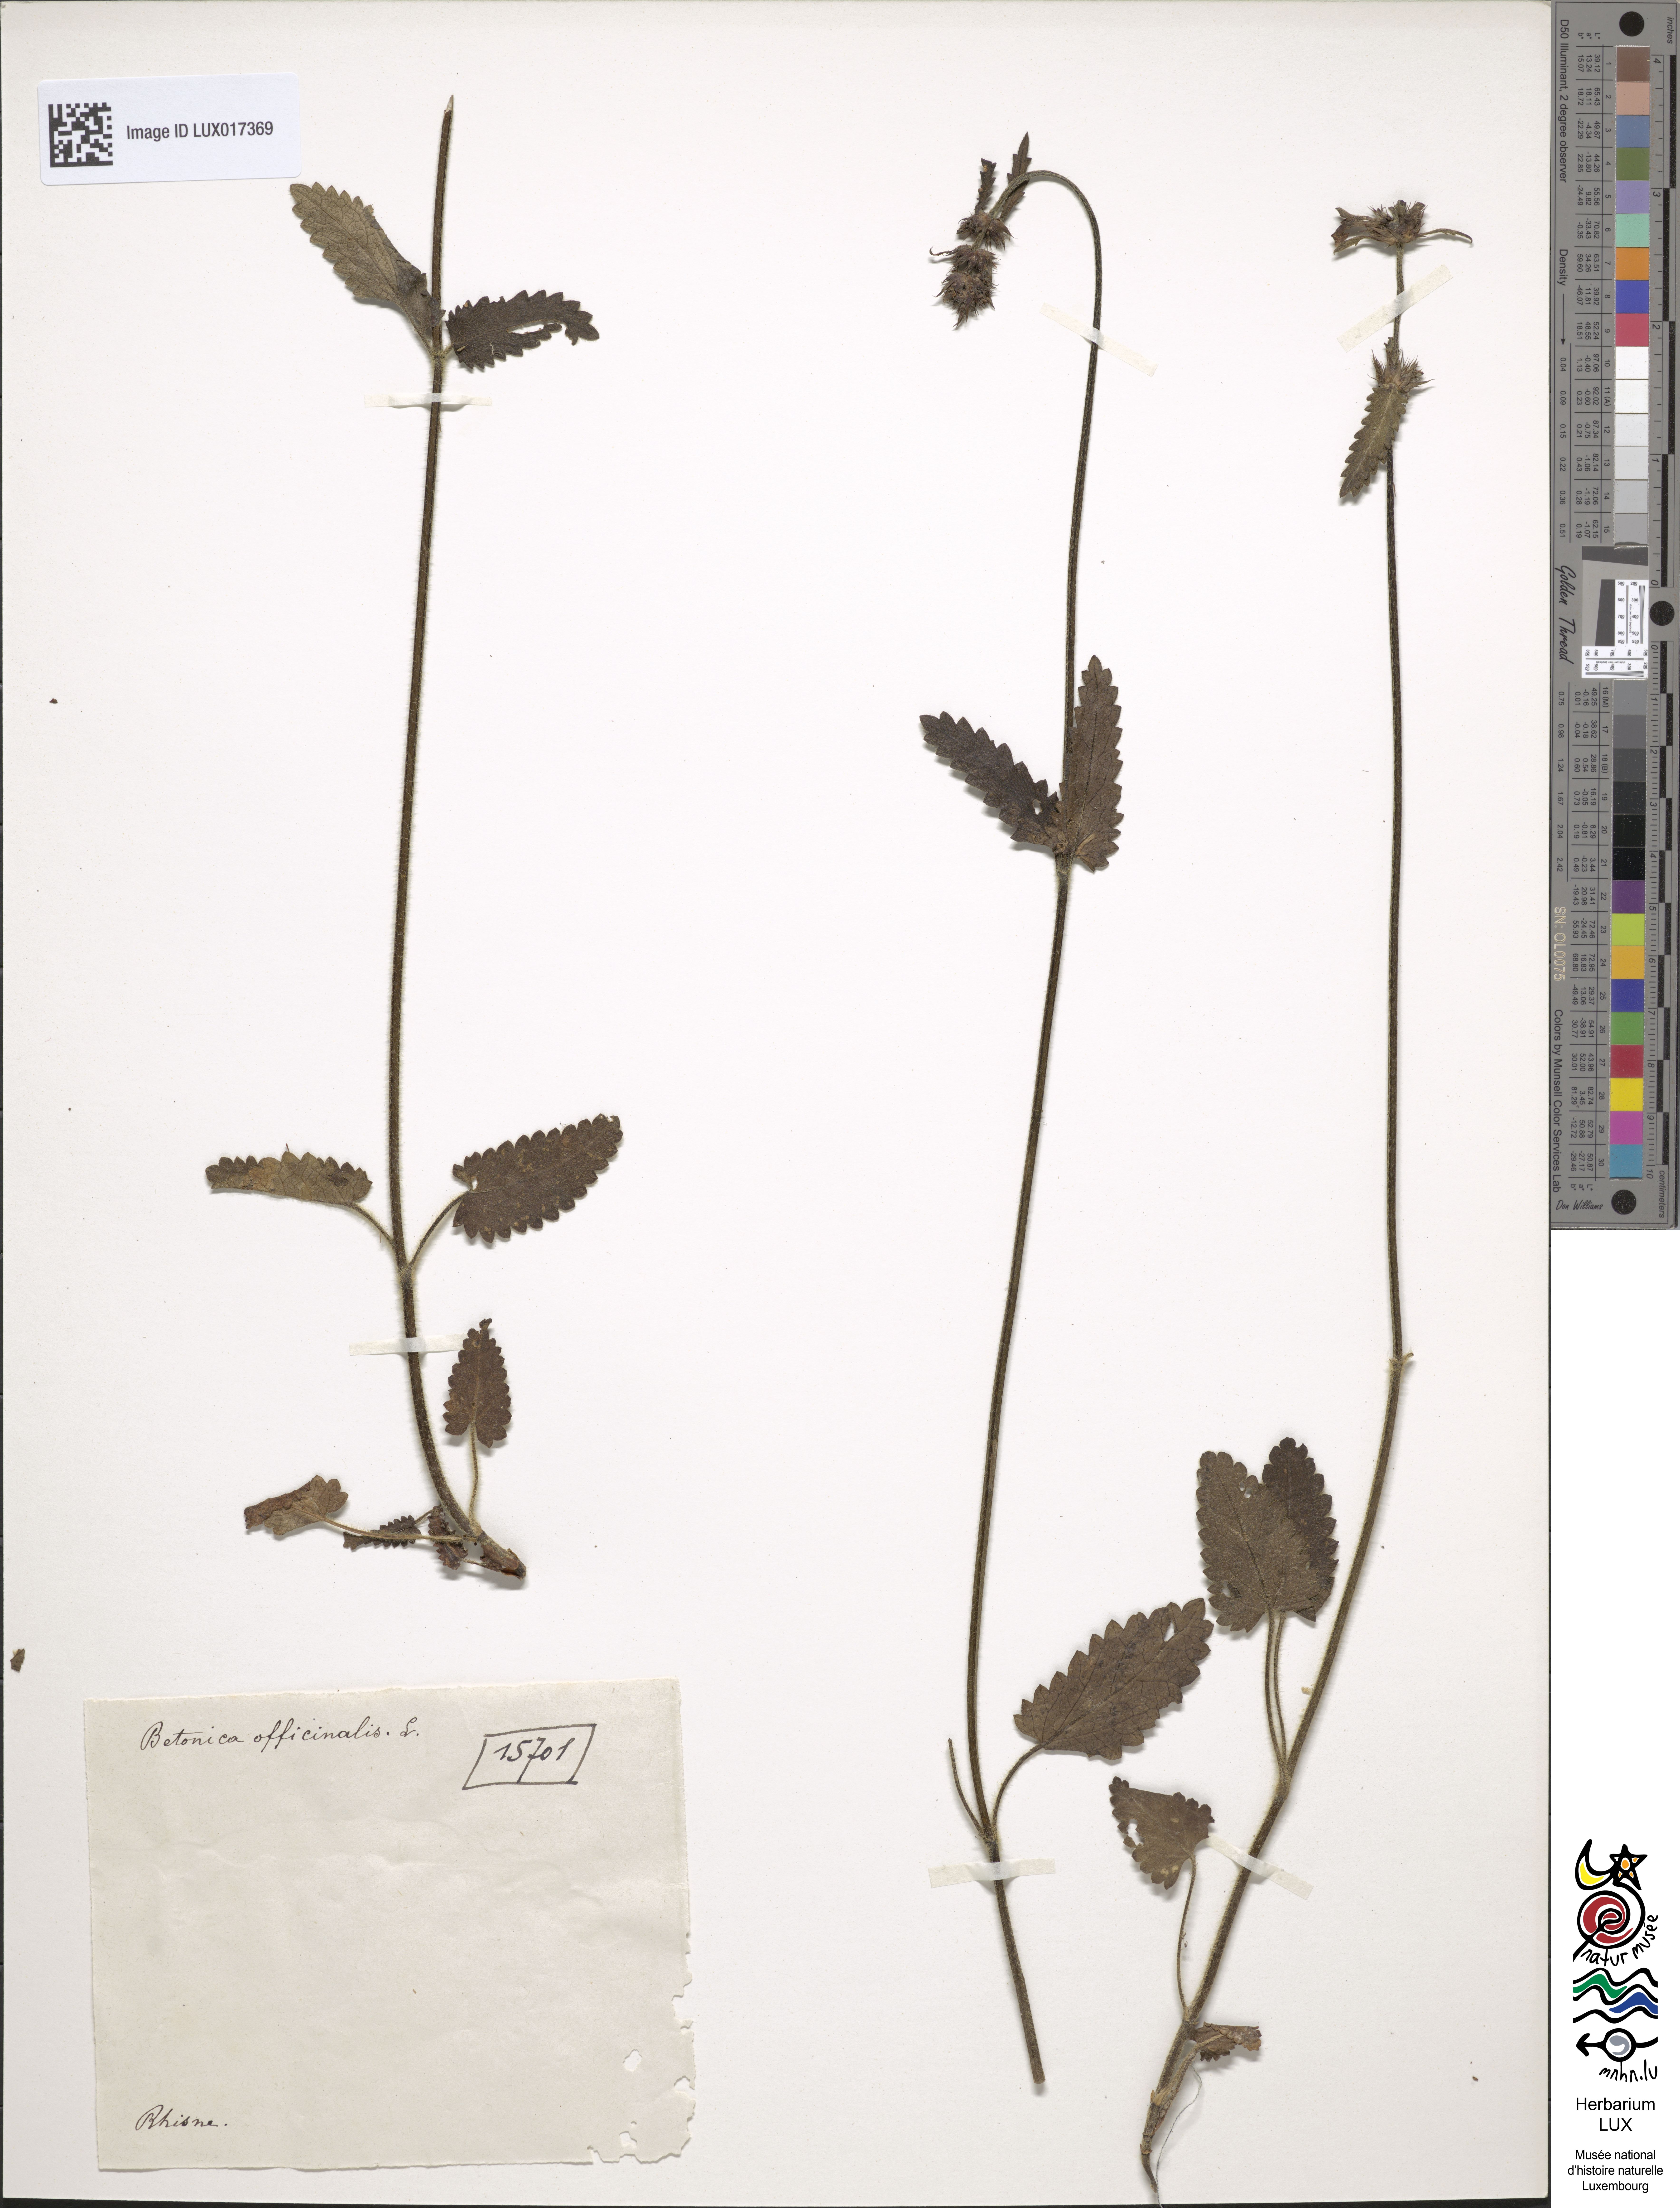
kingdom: Plantae
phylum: Tracheophyta
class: Magnoliopsida
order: Lamiales
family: Lamiaceae
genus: Betonica
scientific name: Betonica officinalis
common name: Bishop's-wort
